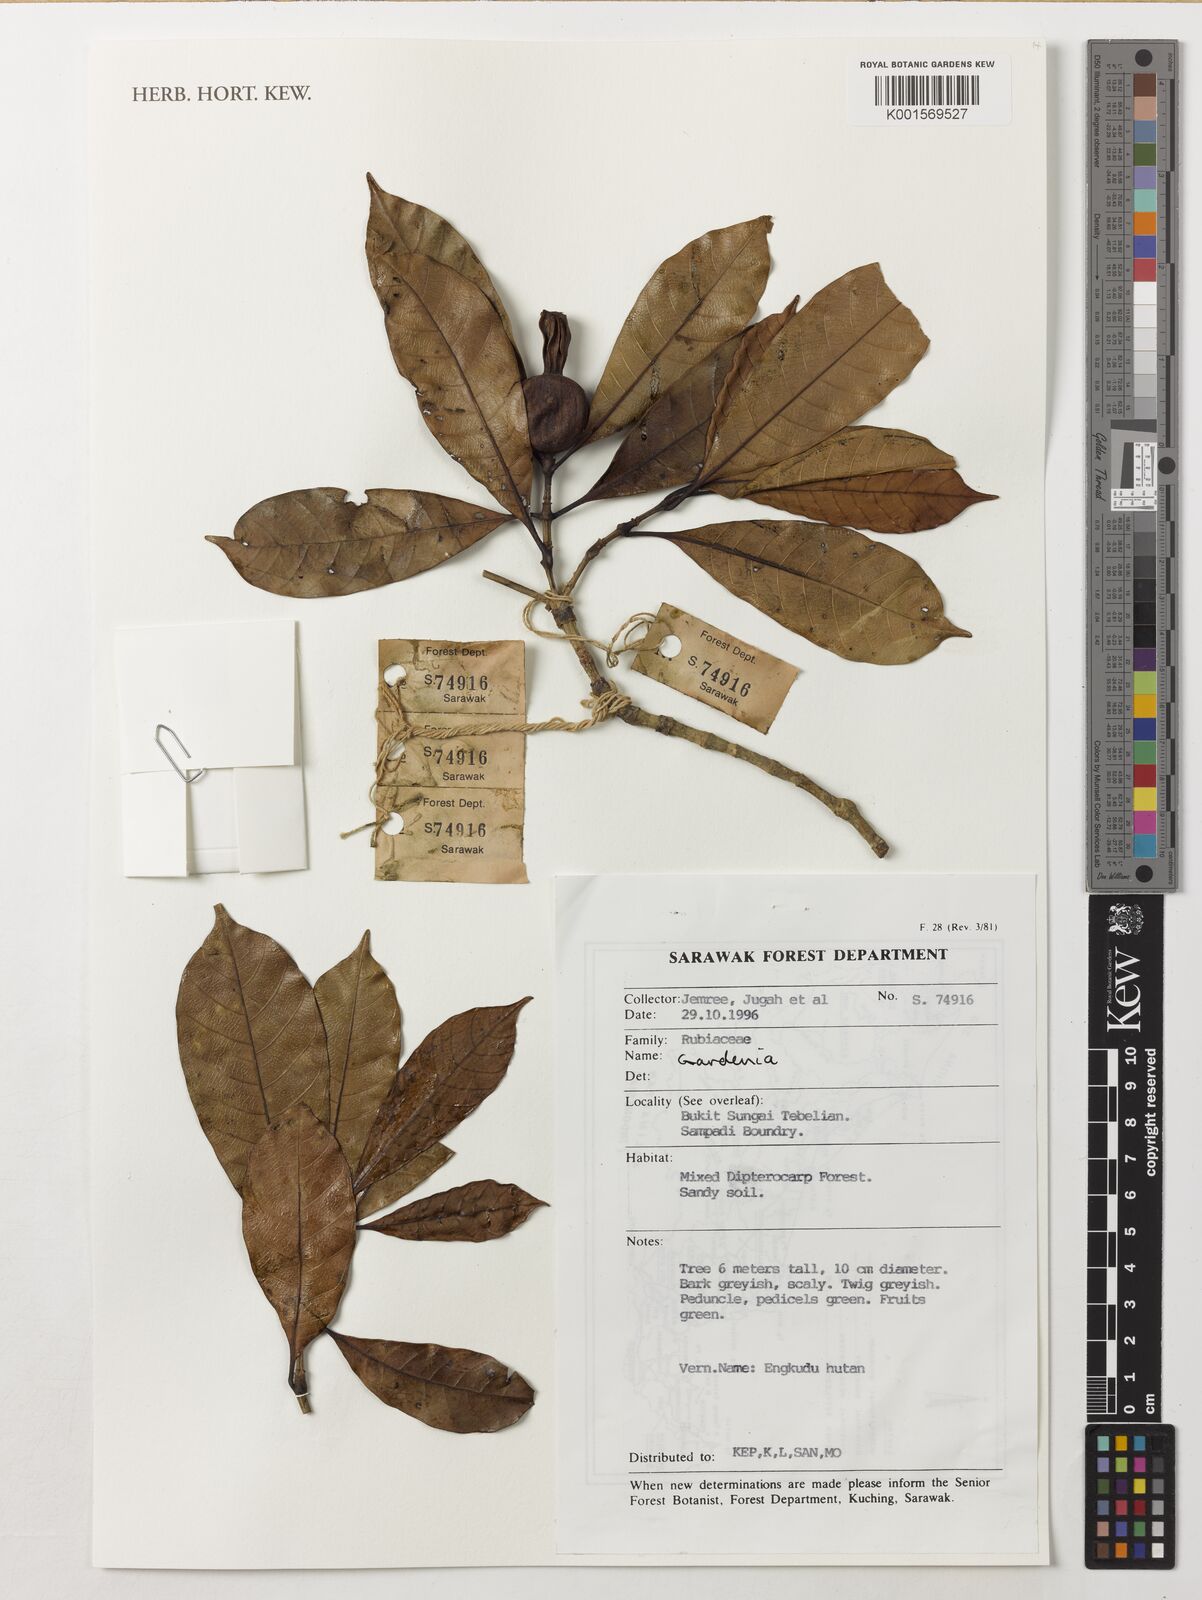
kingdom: Plantae
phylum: Tracheophyta
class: Magnoliopsida
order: Gentianales
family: Rubiaceae
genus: Gardenia
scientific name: Gardenia
